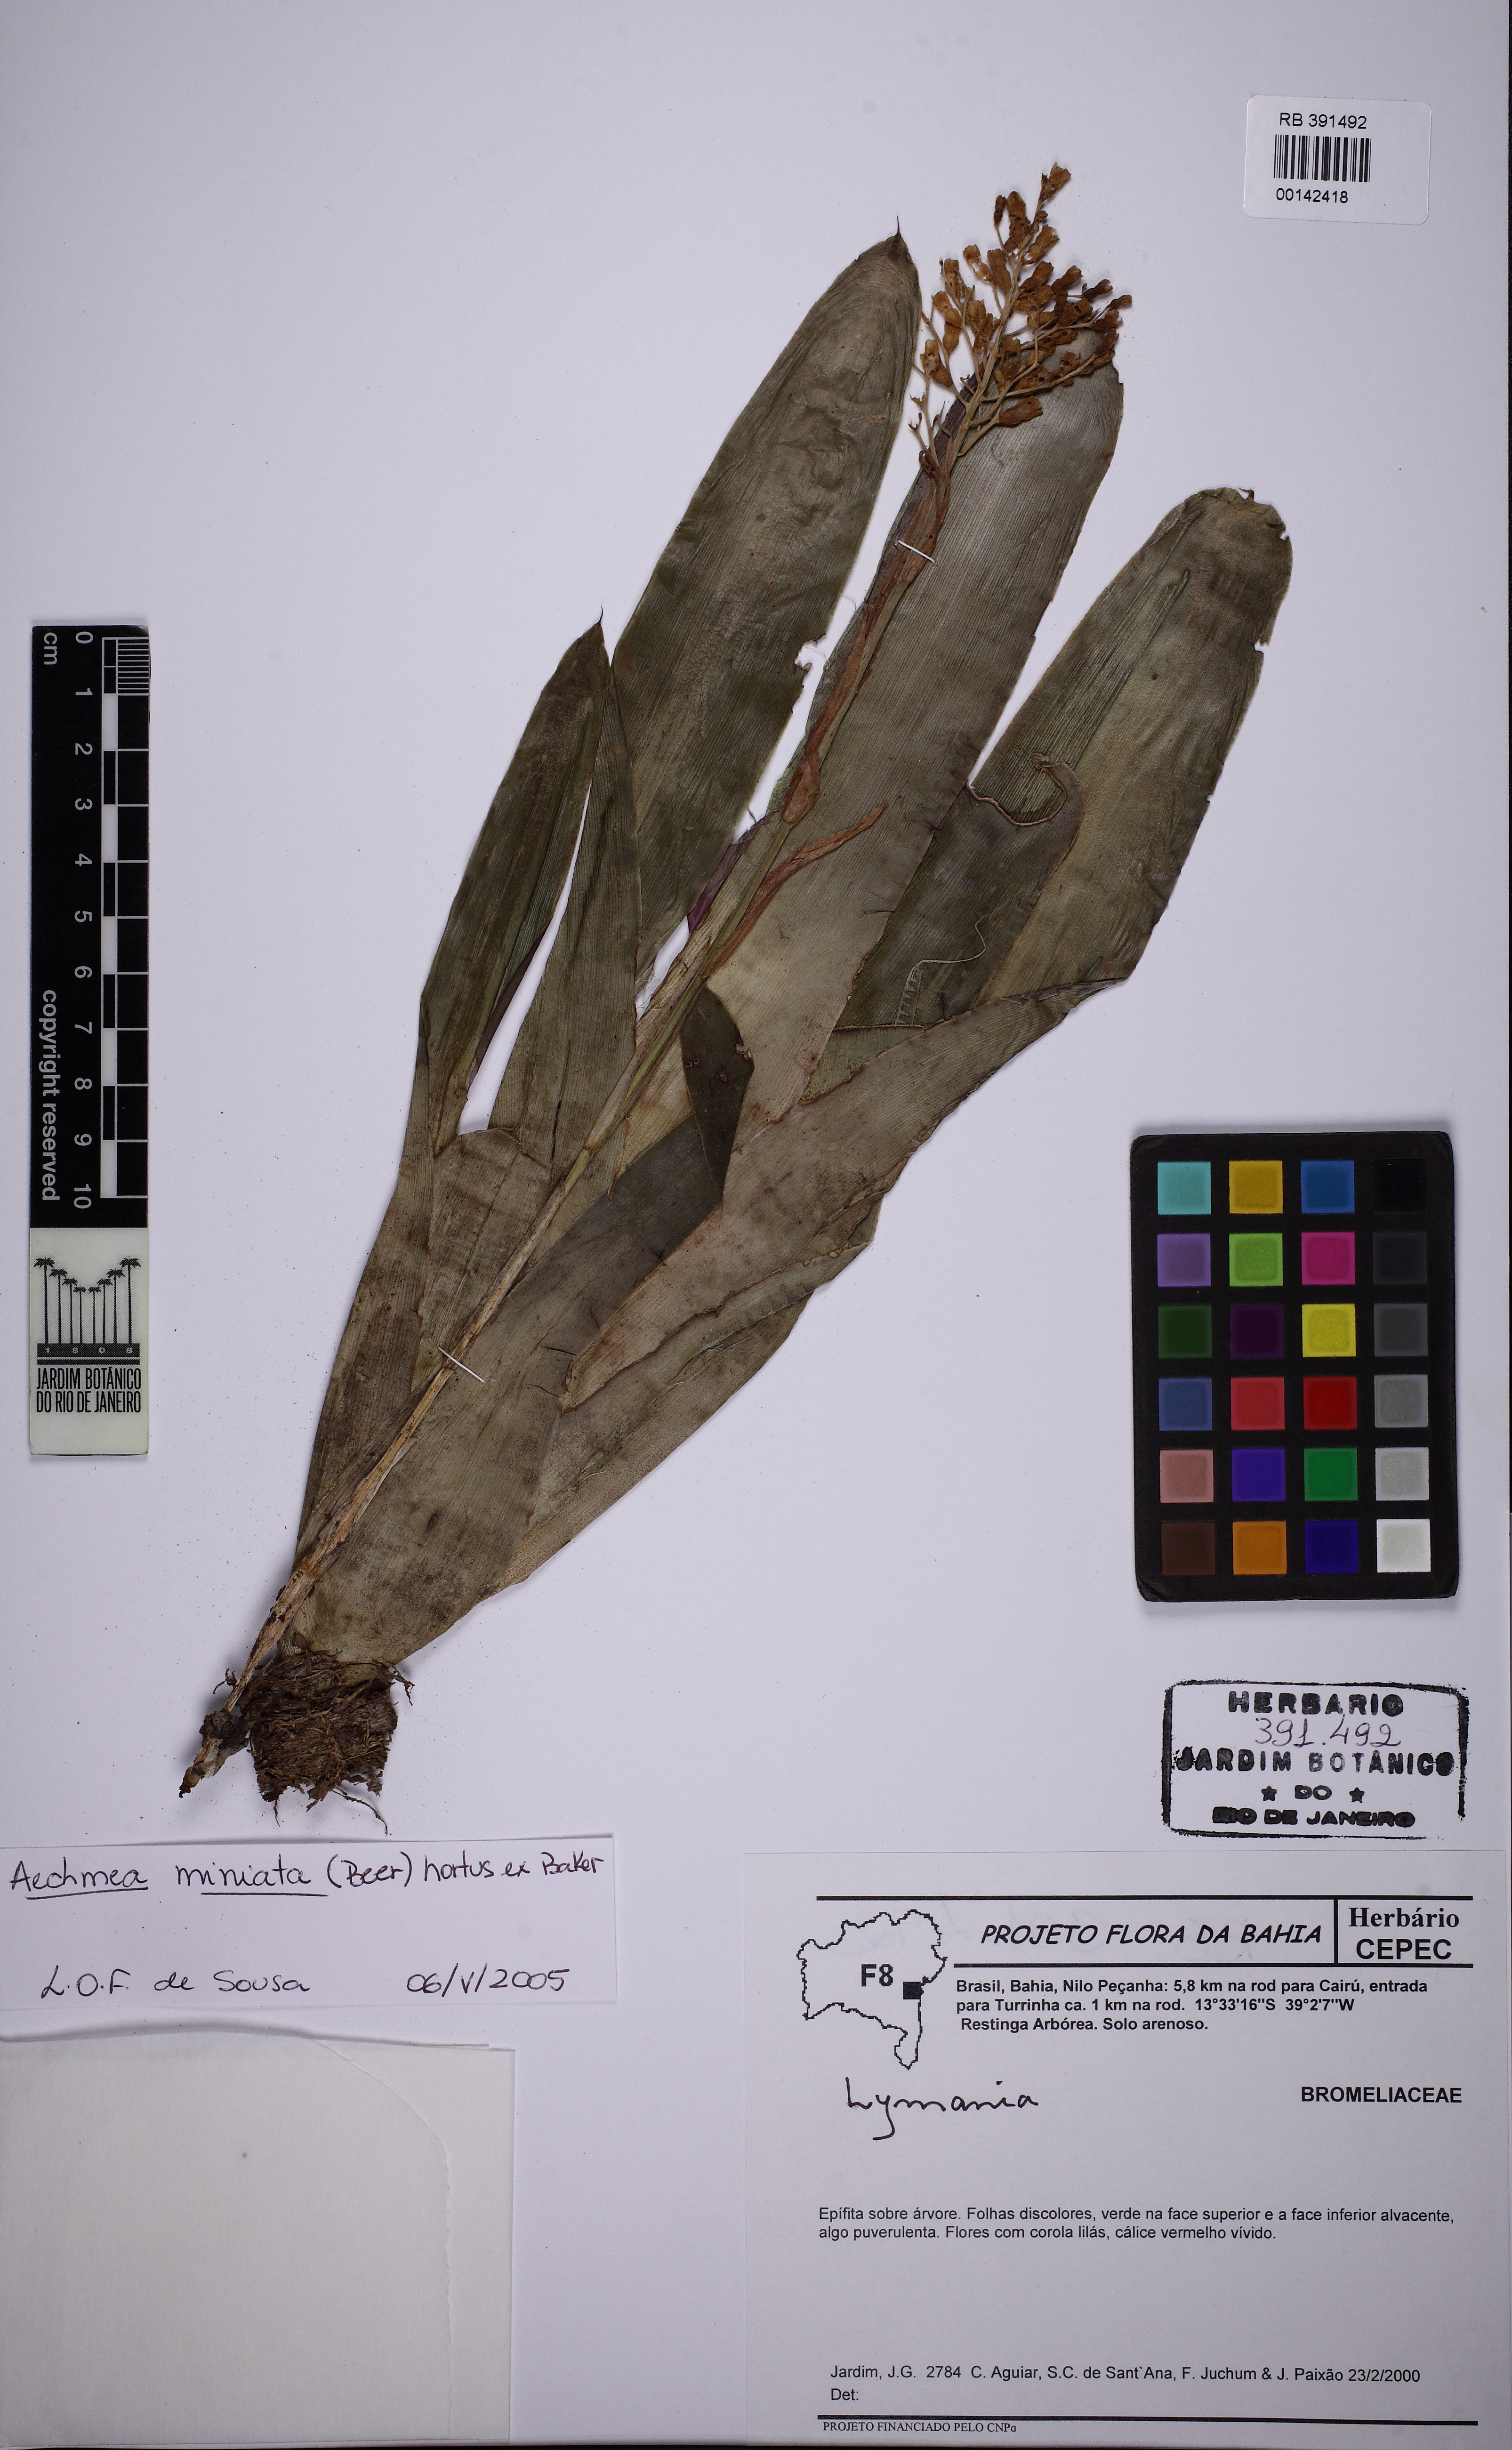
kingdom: Plantae
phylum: Tracheophyta
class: Liliopsida
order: Poales
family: Bromeliaceae
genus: Aechmea
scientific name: Aechmea miniata
